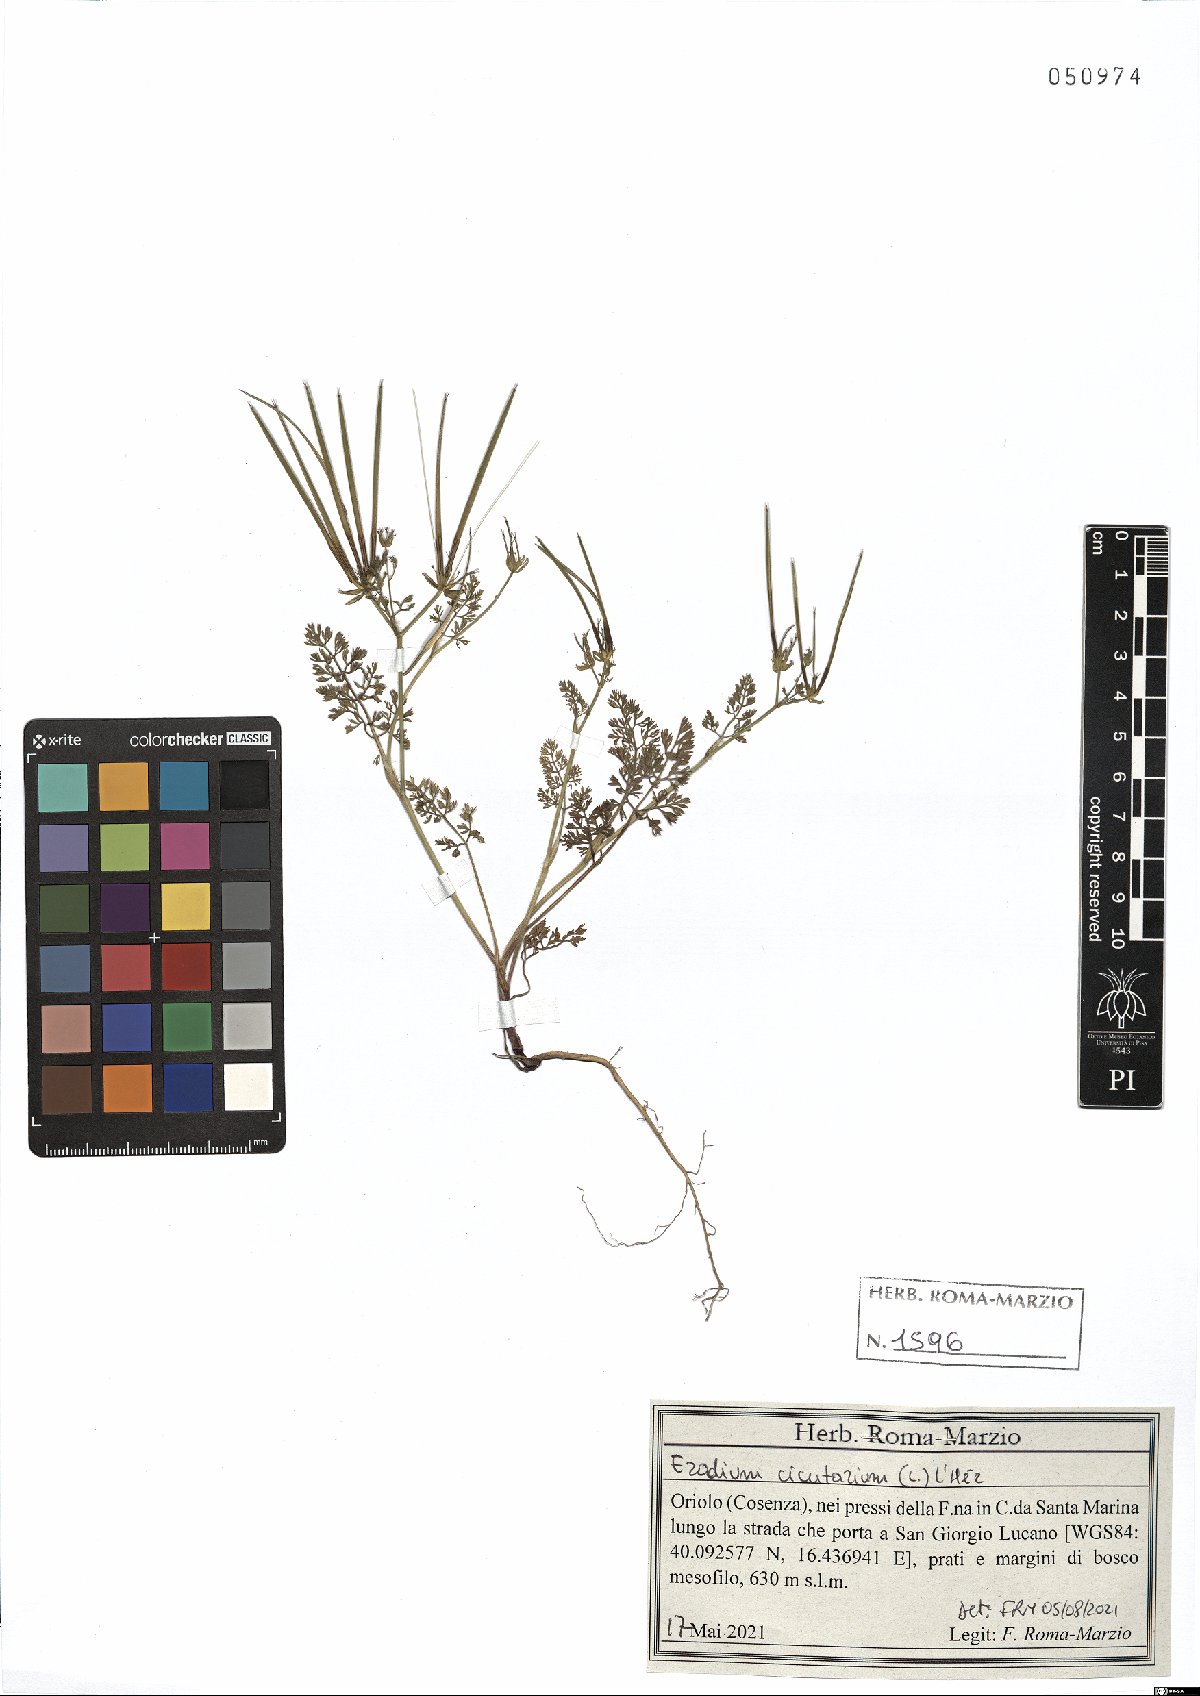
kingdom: Plantae
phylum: Tracheophyta
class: Magnoliopsida
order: Geraniales
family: Geraniaceae
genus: Erodium
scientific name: Erodium cicutarium
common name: Common stork's-bill
